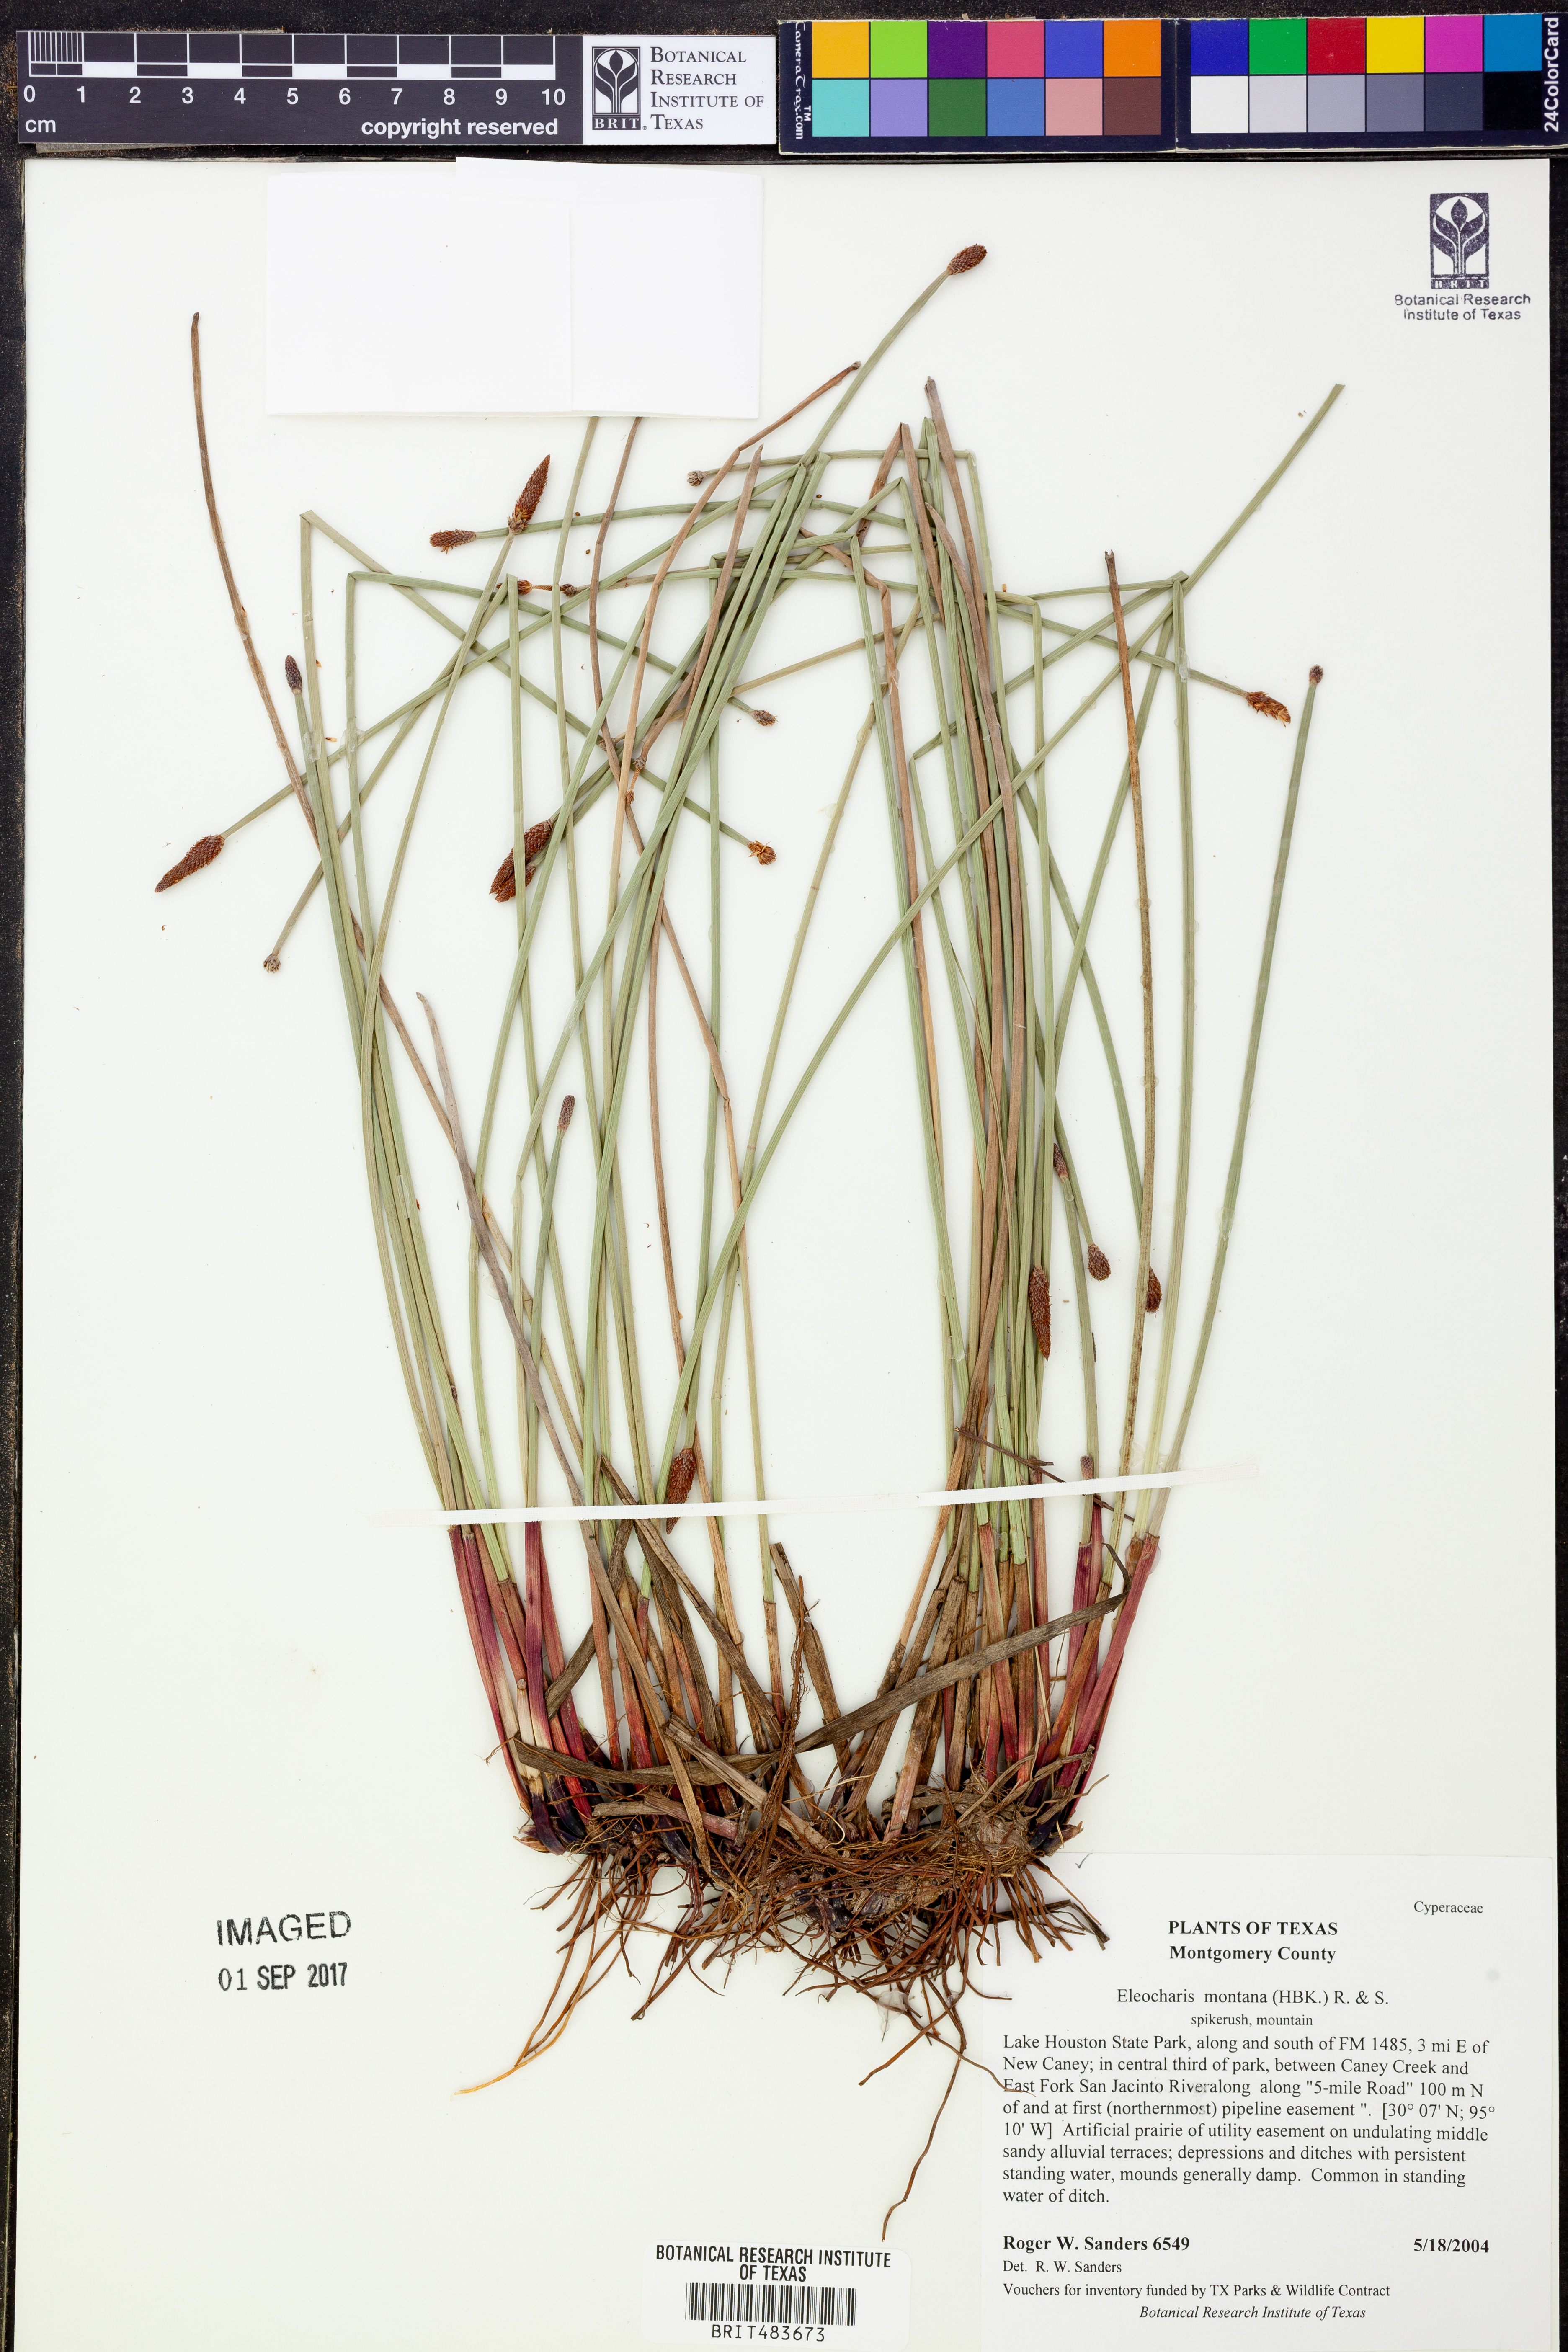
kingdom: Plantae
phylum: Tracheophyta
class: Liliopsida
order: Poales
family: Cyperaceae
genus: Eleocharis
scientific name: Eleocharis montana
